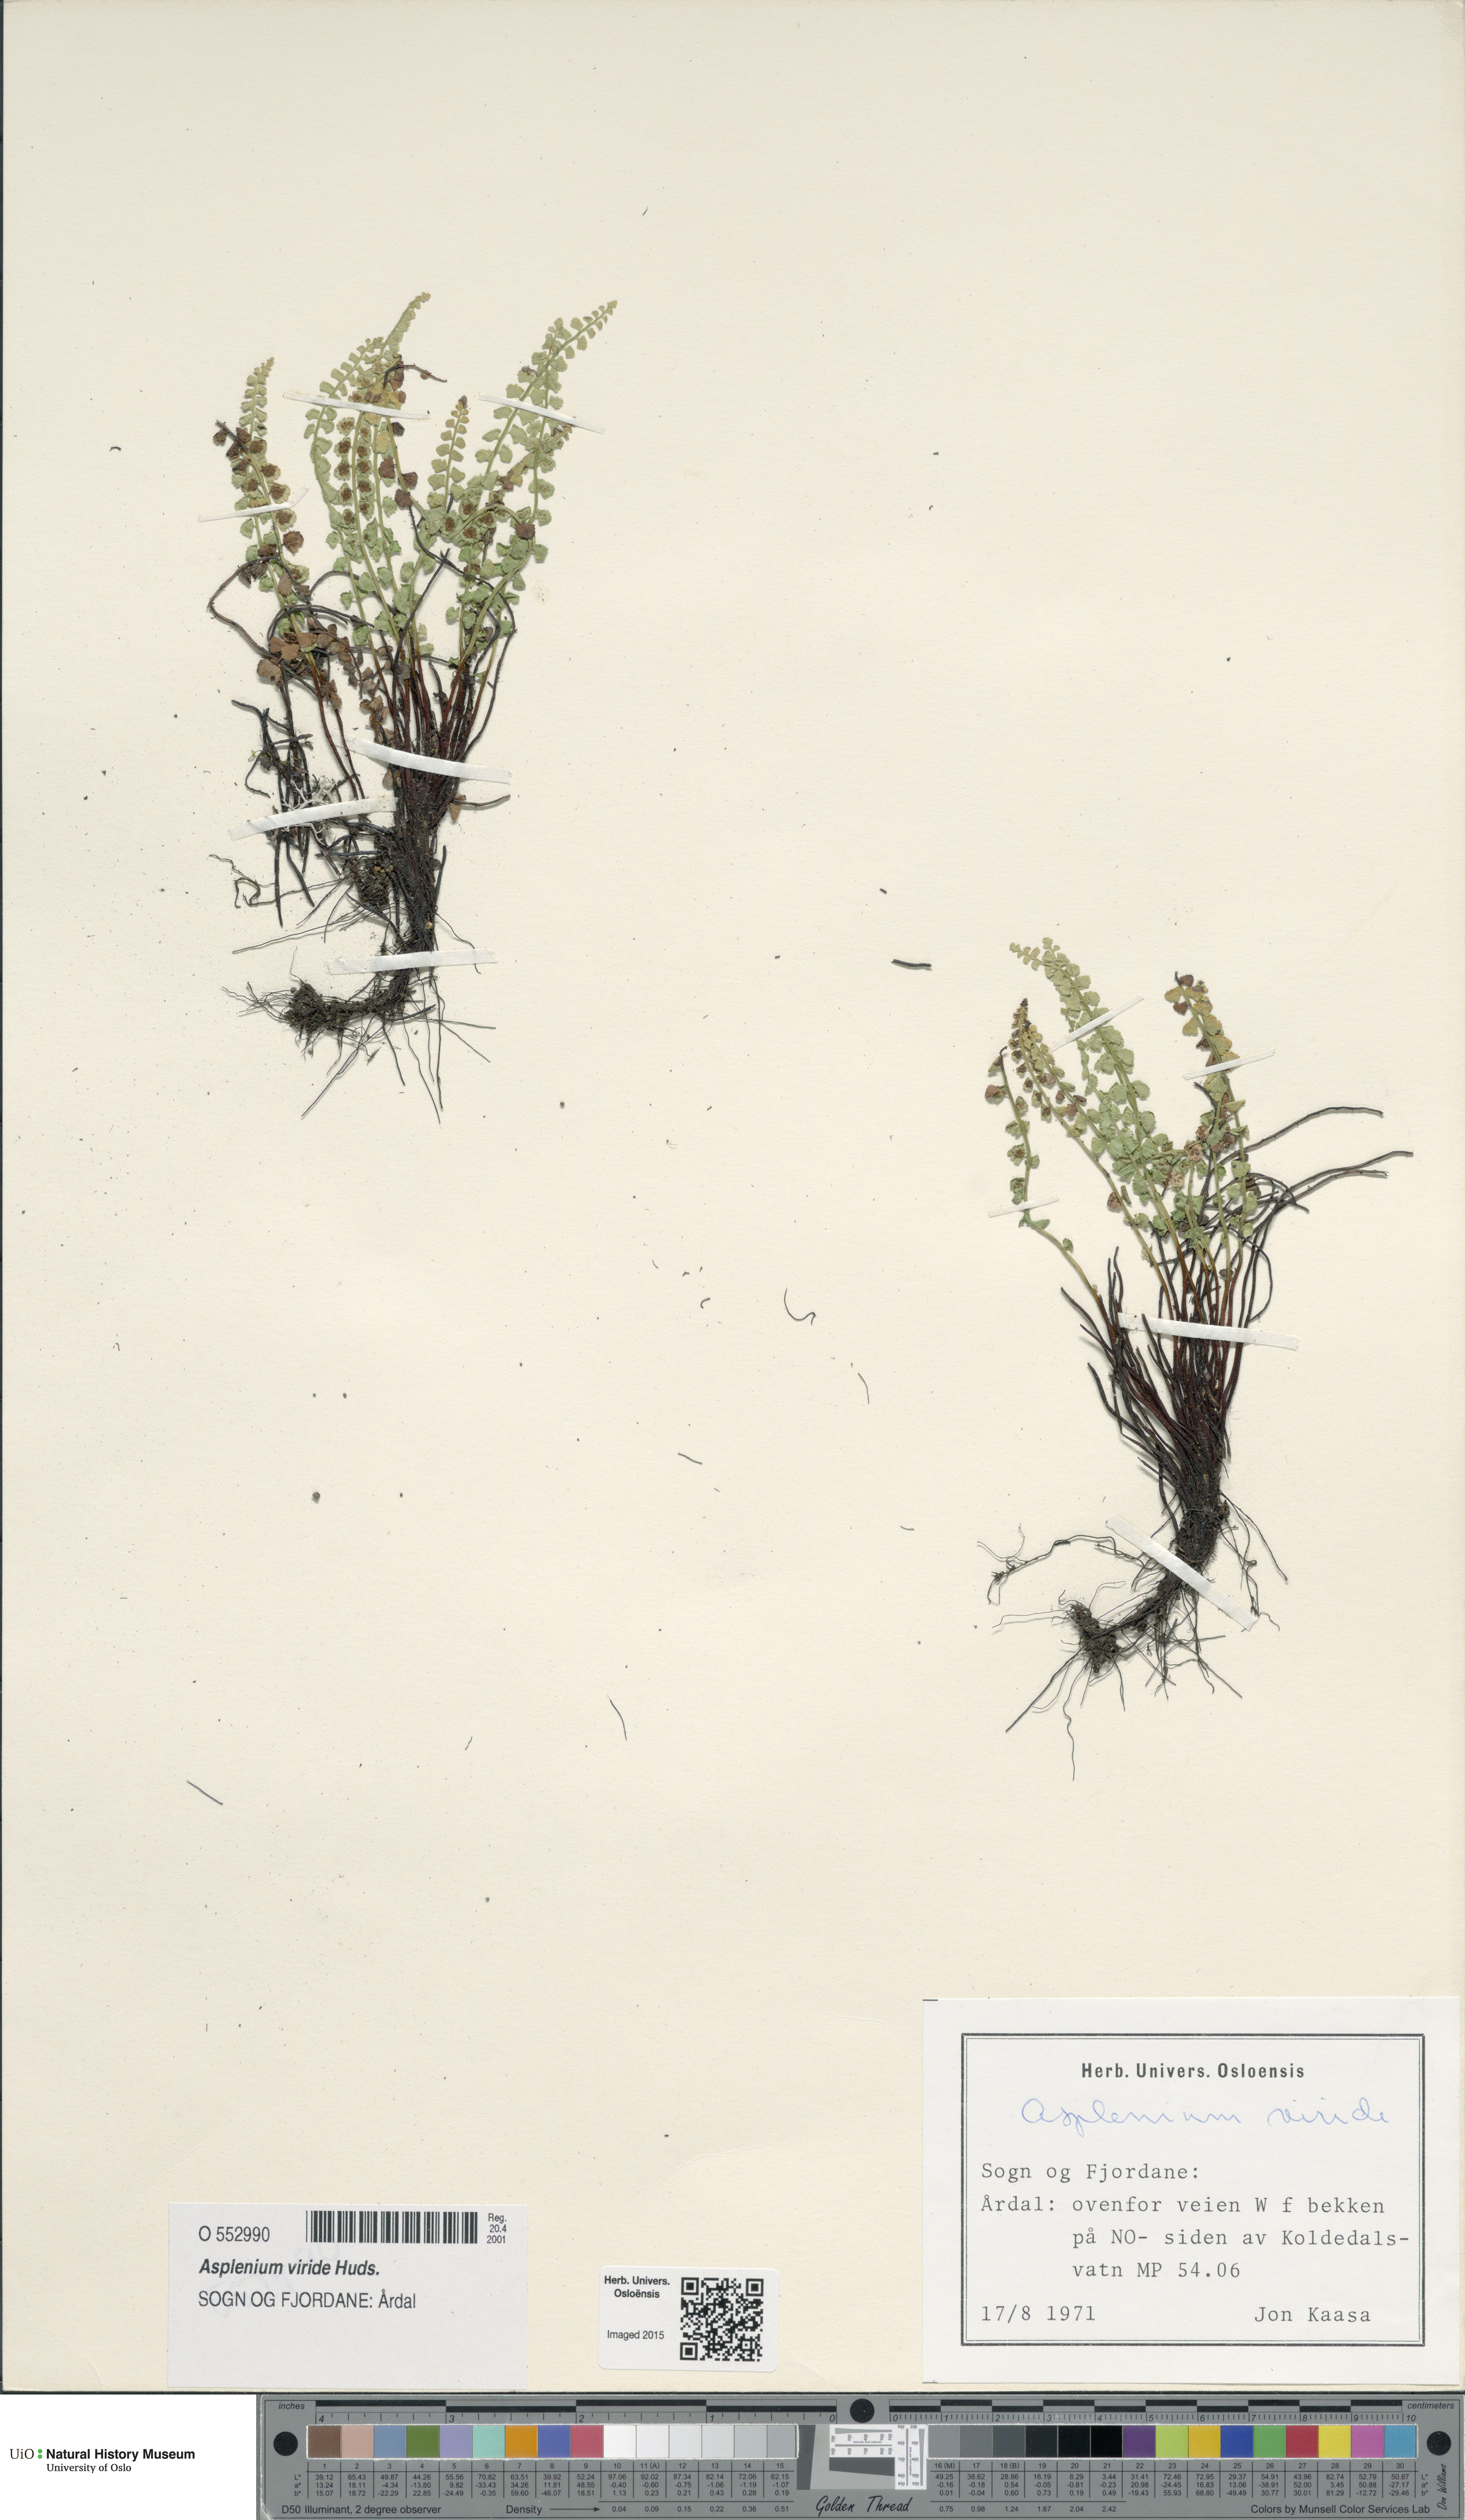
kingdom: Plantae
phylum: Tracheophyta
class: Polypodiopsida
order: Polypodiales
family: Aspleniaceae
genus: Asplenium
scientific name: Asplenium viride
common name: Green spleenwort
